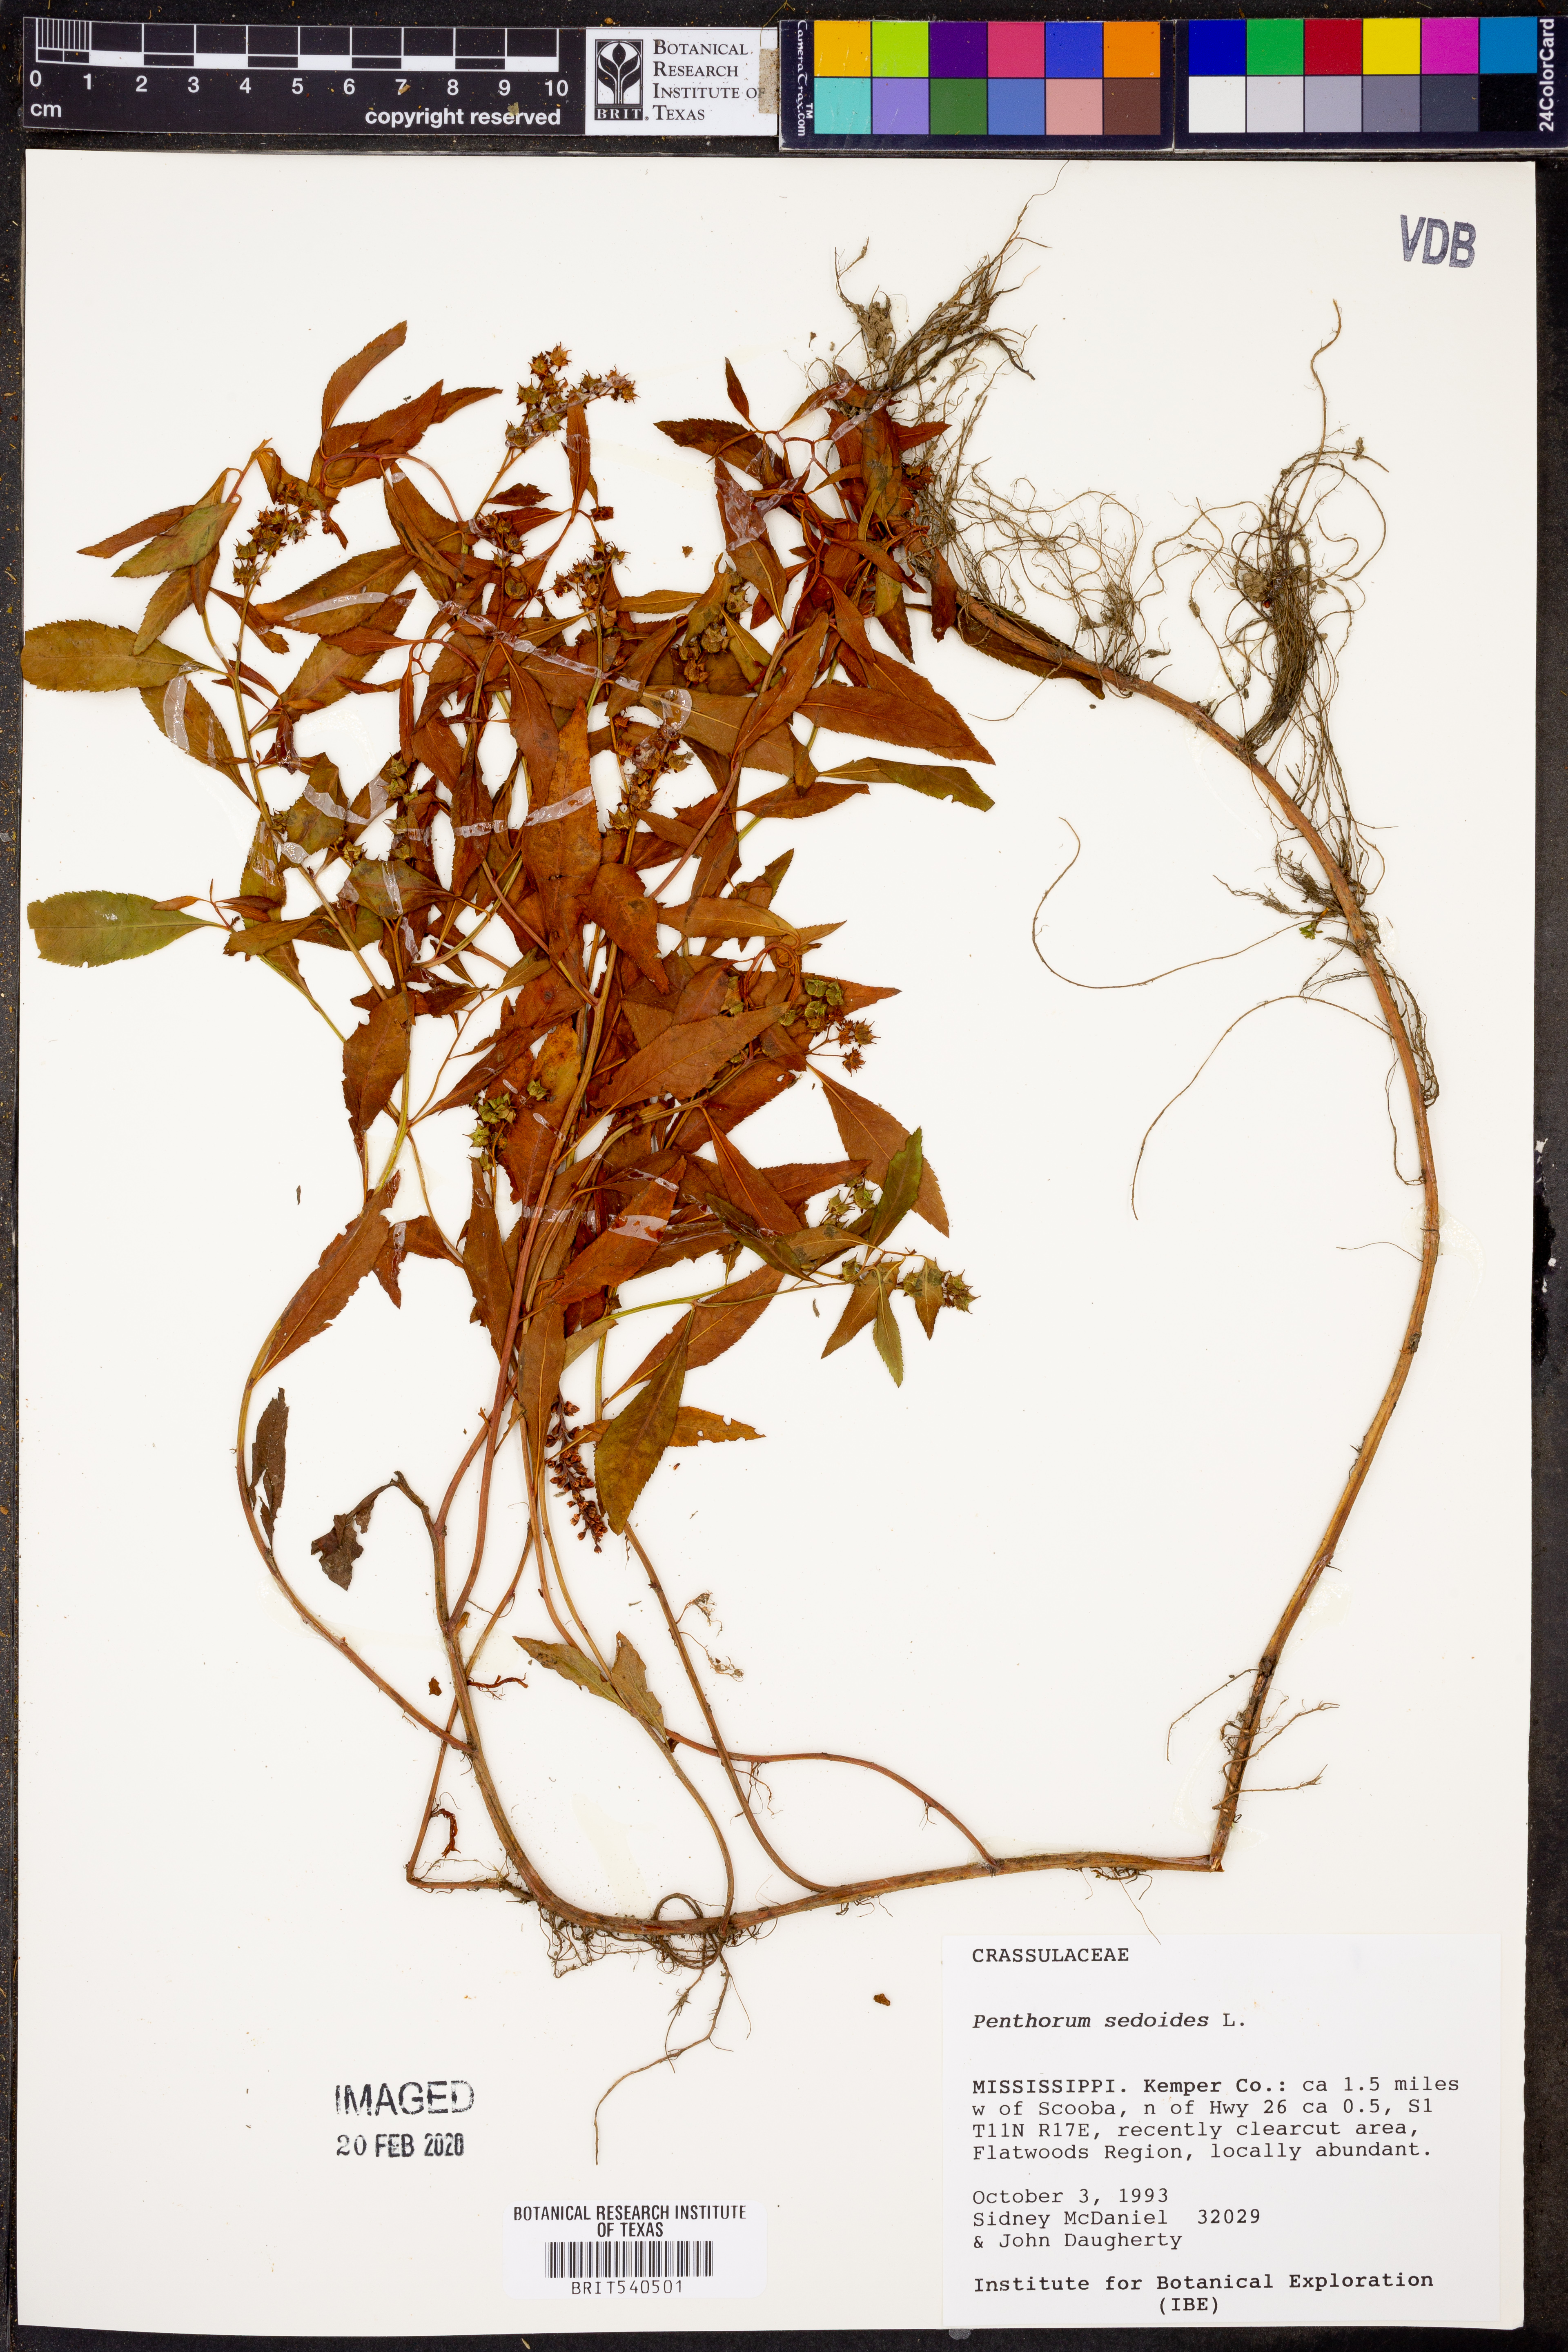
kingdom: Plantae
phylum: Tracheophyta
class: Magnoliopsida
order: Saxifragales
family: Penthoraceae
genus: Penthorum
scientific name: Penthorum sedoides
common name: Ditch stonecrop
